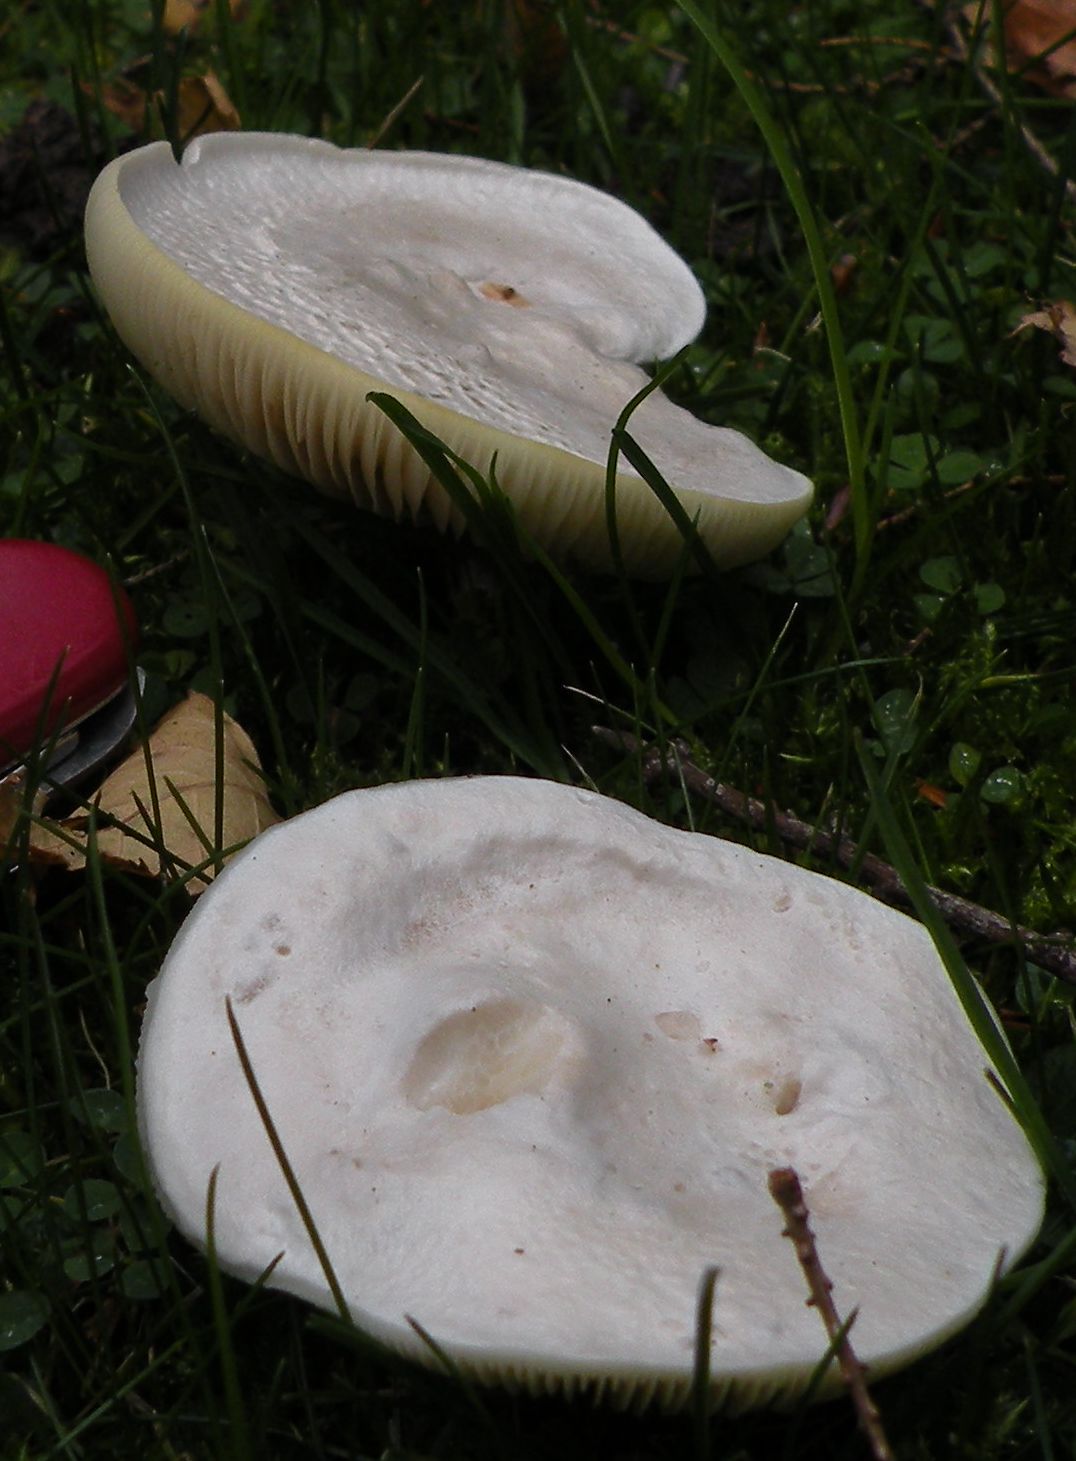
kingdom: Fungi
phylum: Basidiomycota
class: Agaricomycetes
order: Agaricales
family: Entolomataceae
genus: Clitopilus
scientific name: Clitopilus prunulus
